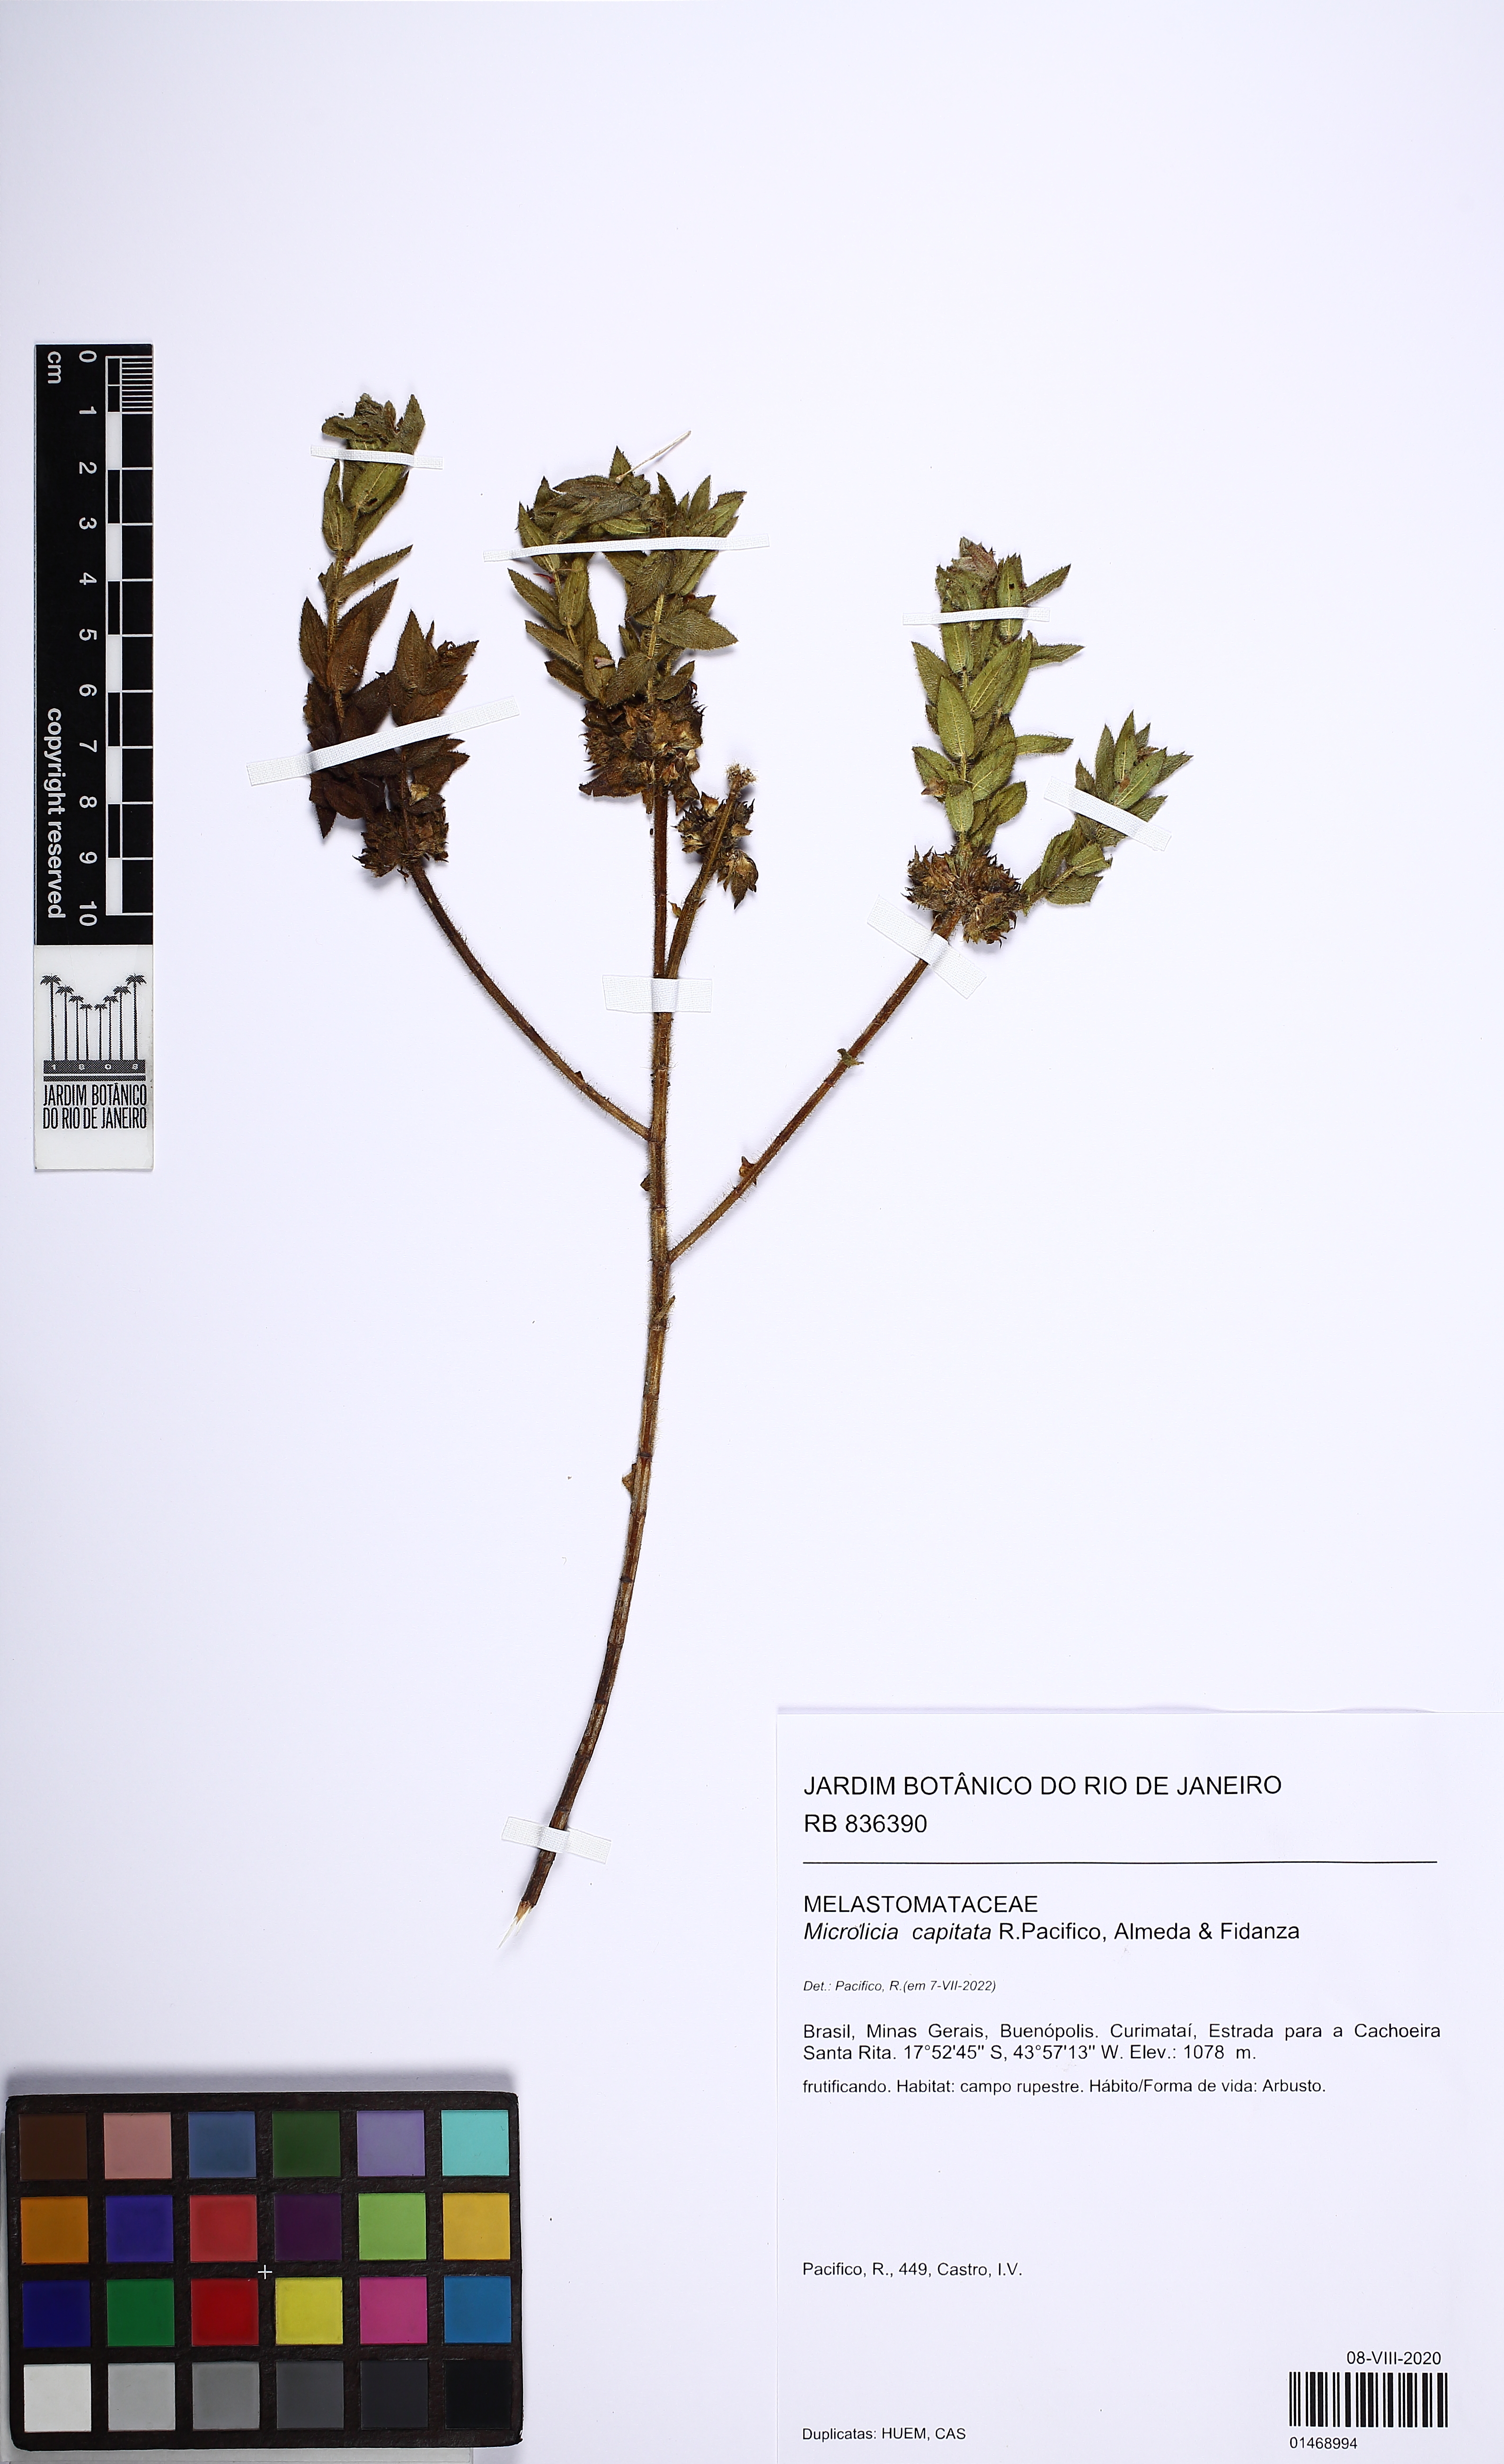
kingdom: Plantae
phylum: Tracheophyta
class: Magnoliopsida
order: Myrtales
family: Melastomataceae
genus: Microlicia
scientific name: Microlicia capitata
